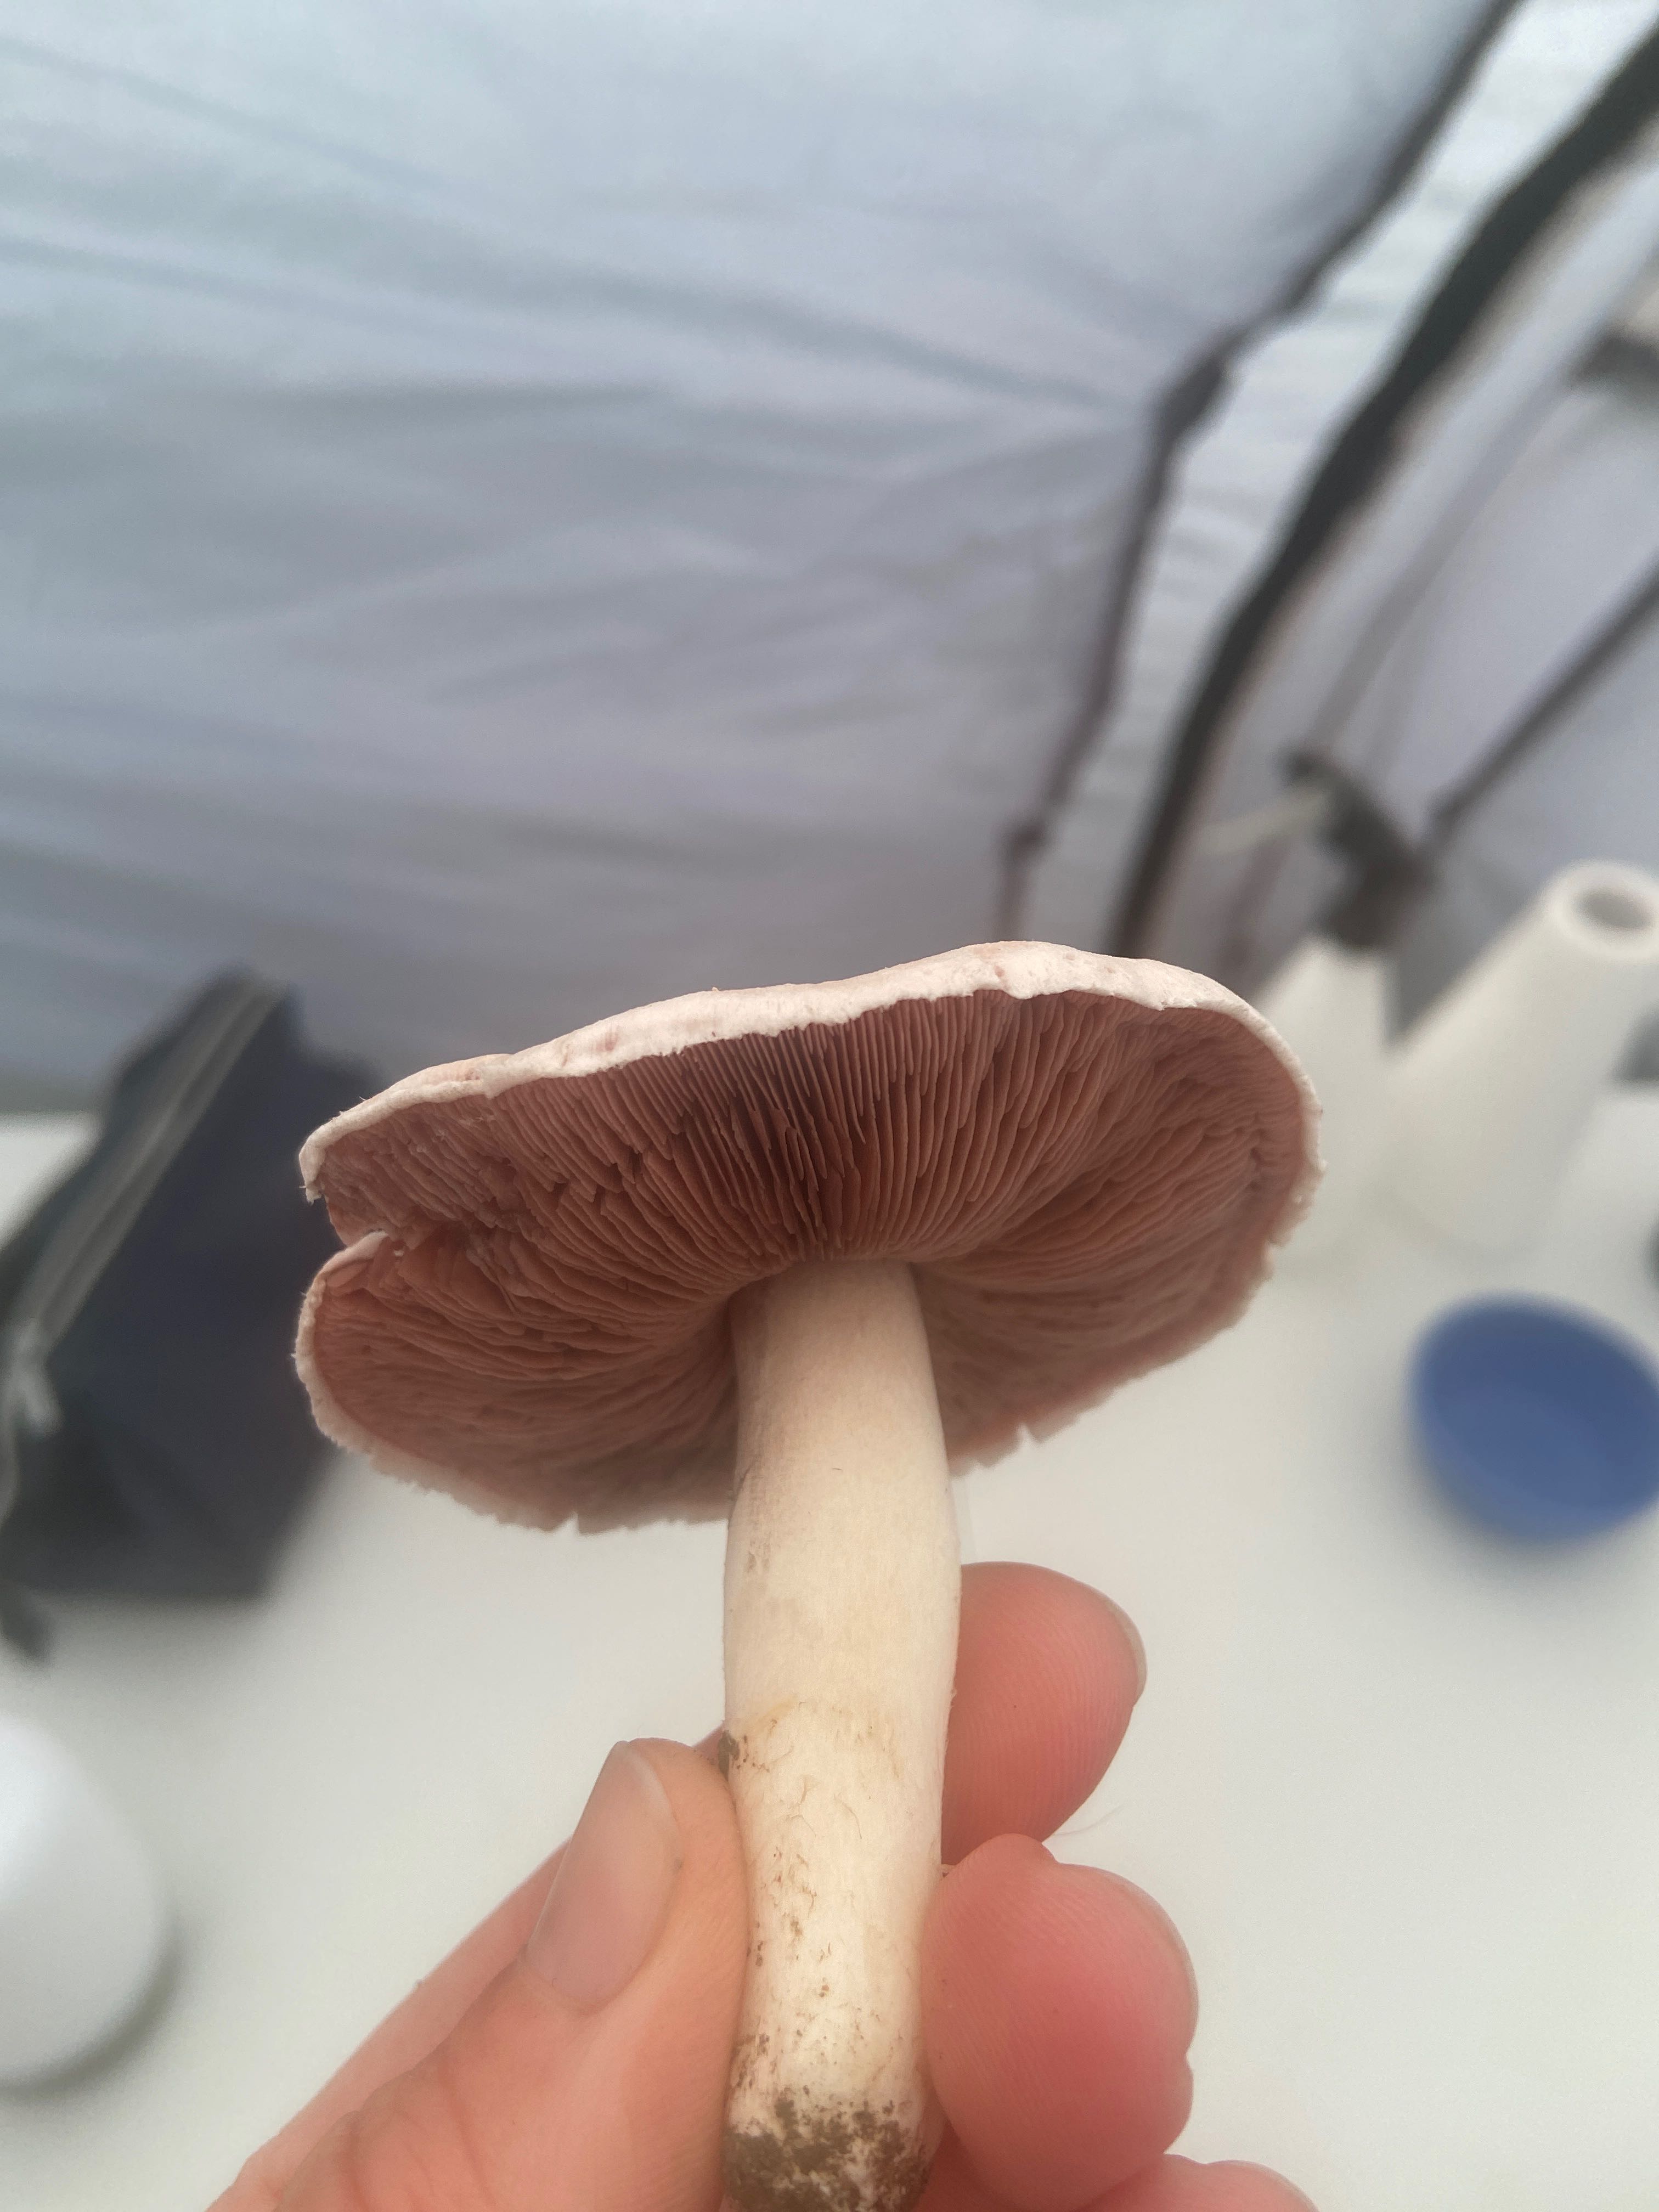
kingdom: Fungi
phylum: Basidiomycota
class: Agaricomycetes
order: Agaricales
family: Agaricaceae
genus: Agaricus
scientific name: Agaricus campestris
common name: mark-champignon
